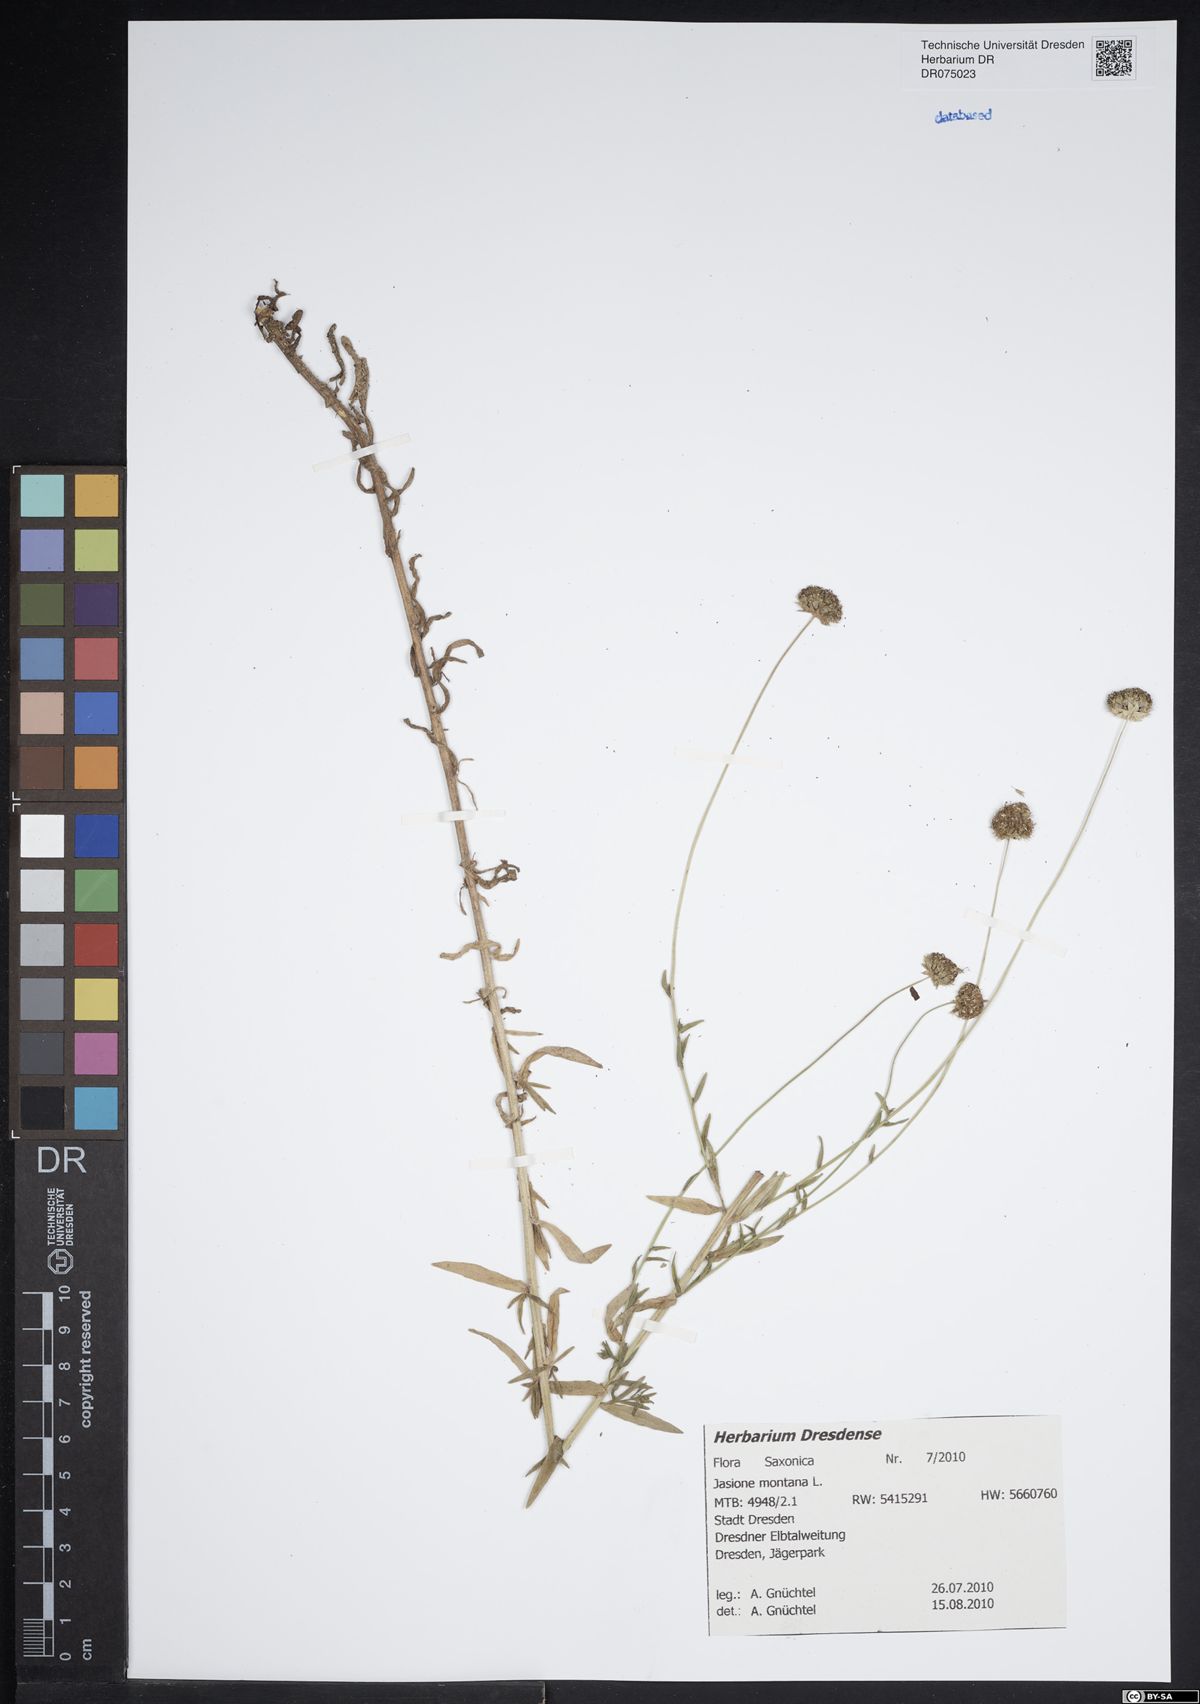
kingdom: Plantae
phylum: Tracheophyta
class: Magnoliopsida
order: Asterales
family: Campanulaceae
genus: Jasione
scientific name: Jasione montana
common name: Sheep's-bit
